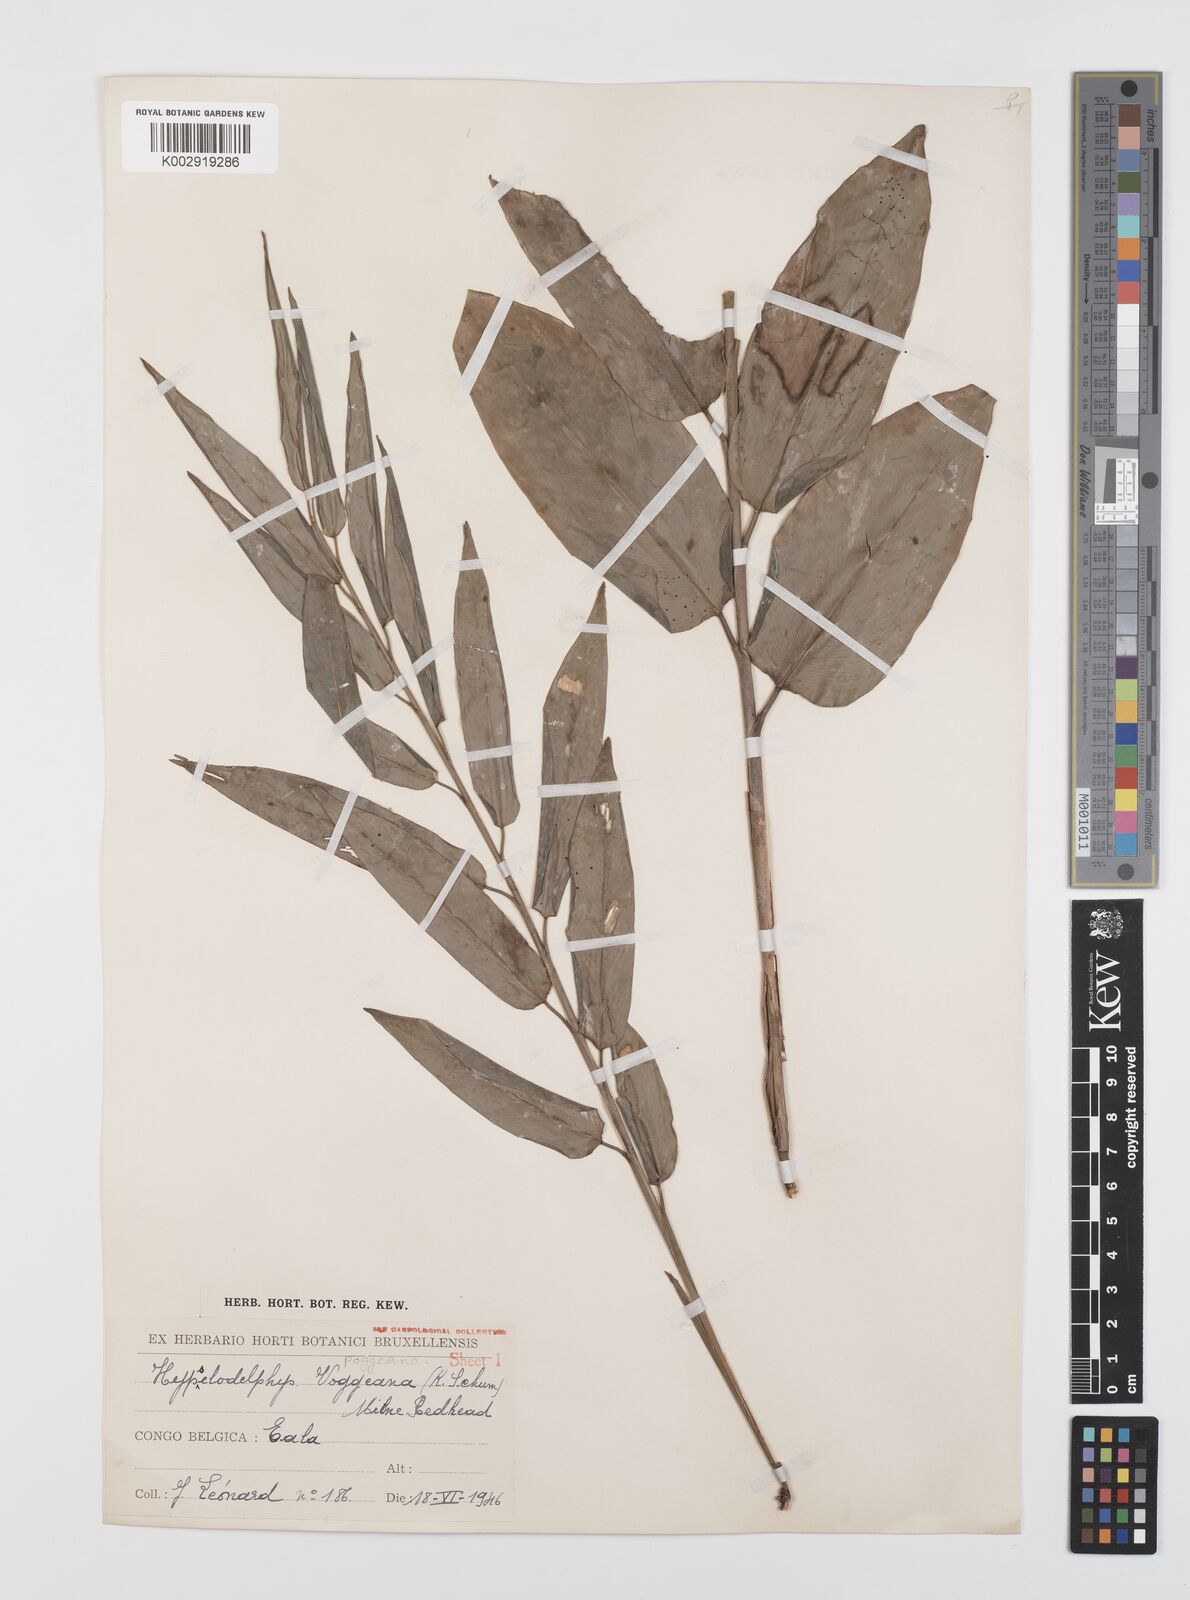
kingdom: Plantae
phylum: Tracheophyta
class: Liliopsida
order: Zingiberales
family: Marantaceae
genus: Hypselodelphys
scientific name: Hypselodelphys poggeana
